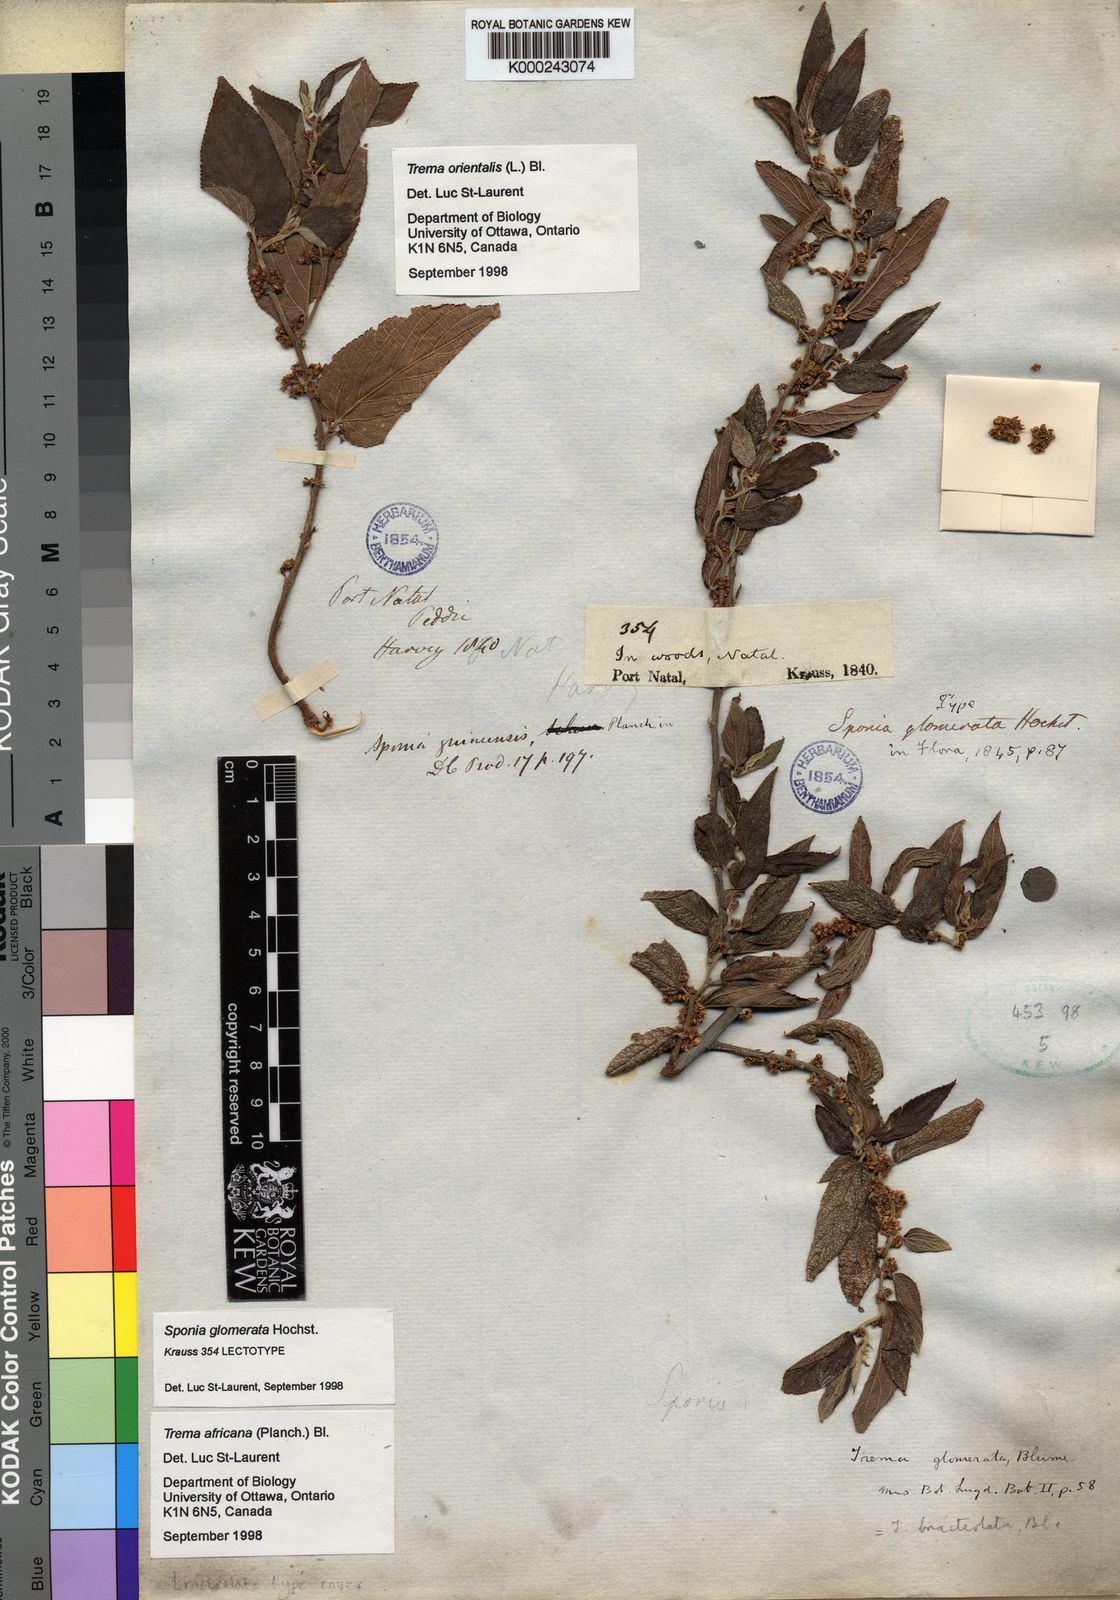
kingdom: Plantae
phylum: Tracheophyta
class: Magnoliopsida
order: Rosales
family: Cannabaceae
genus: Trema
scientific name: Trema
